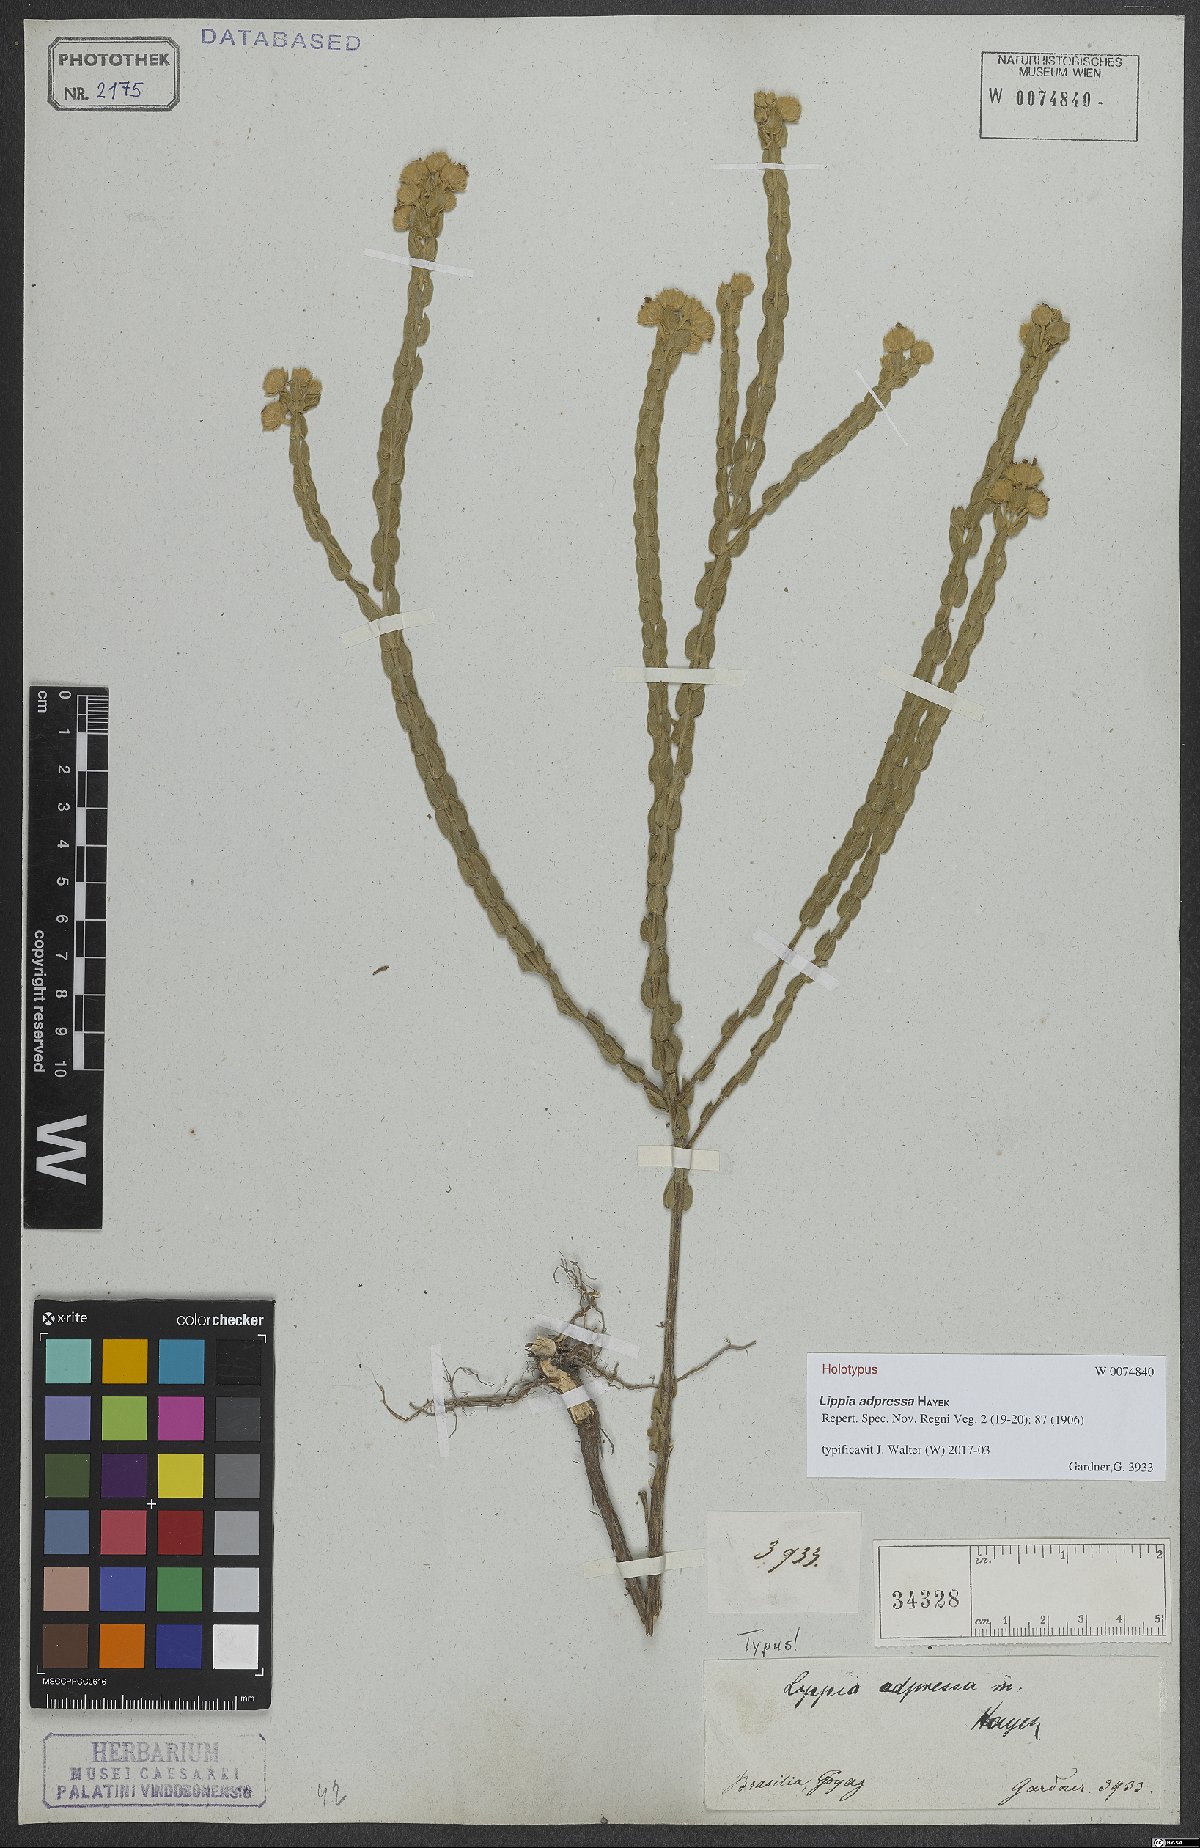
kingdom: Plantae
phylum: Tracheophyta
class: Magnoliopsida
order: Lamiales
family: Lamiaceae
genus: Hyptis
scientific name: Hyptis obtecta
